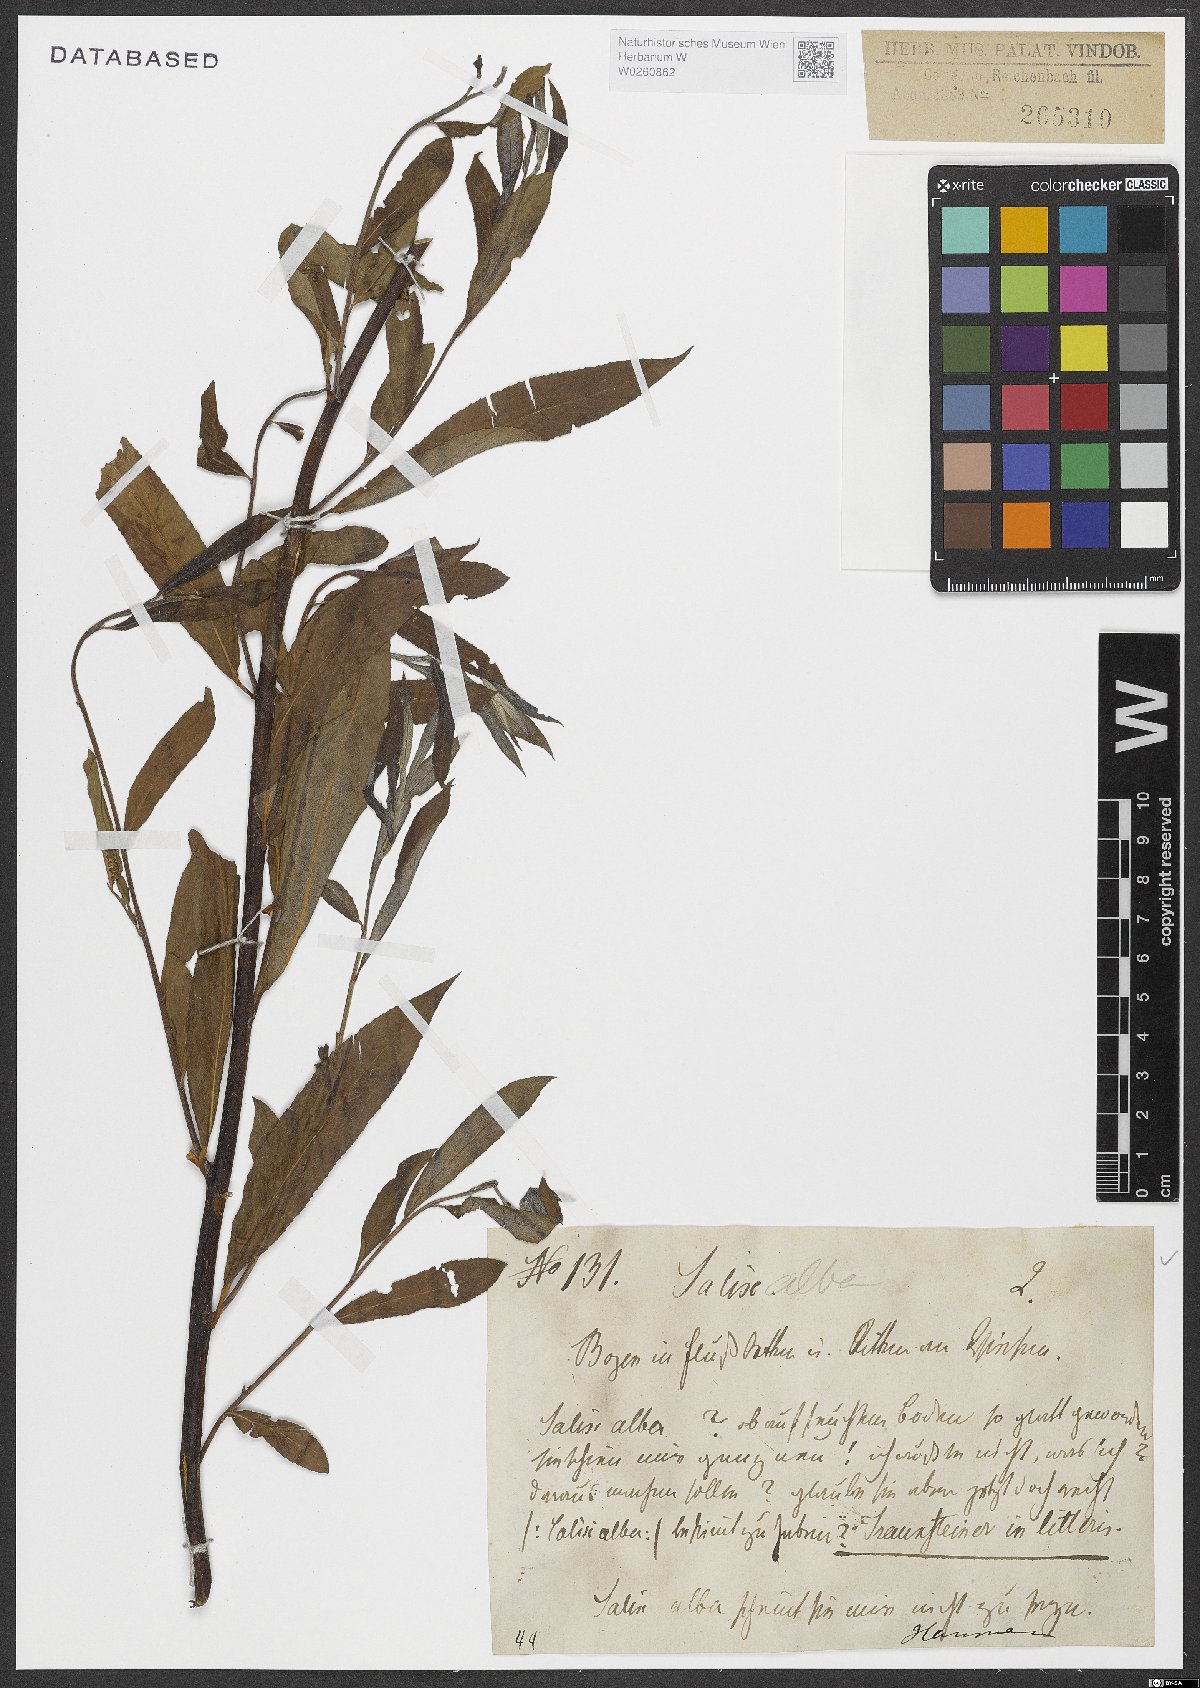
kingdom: Plantae
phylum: Tracheophyta
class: Magnoliopsida
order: Malpighiales
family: Salicaceae
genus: Salix
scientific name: Salix alba
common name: White willow
